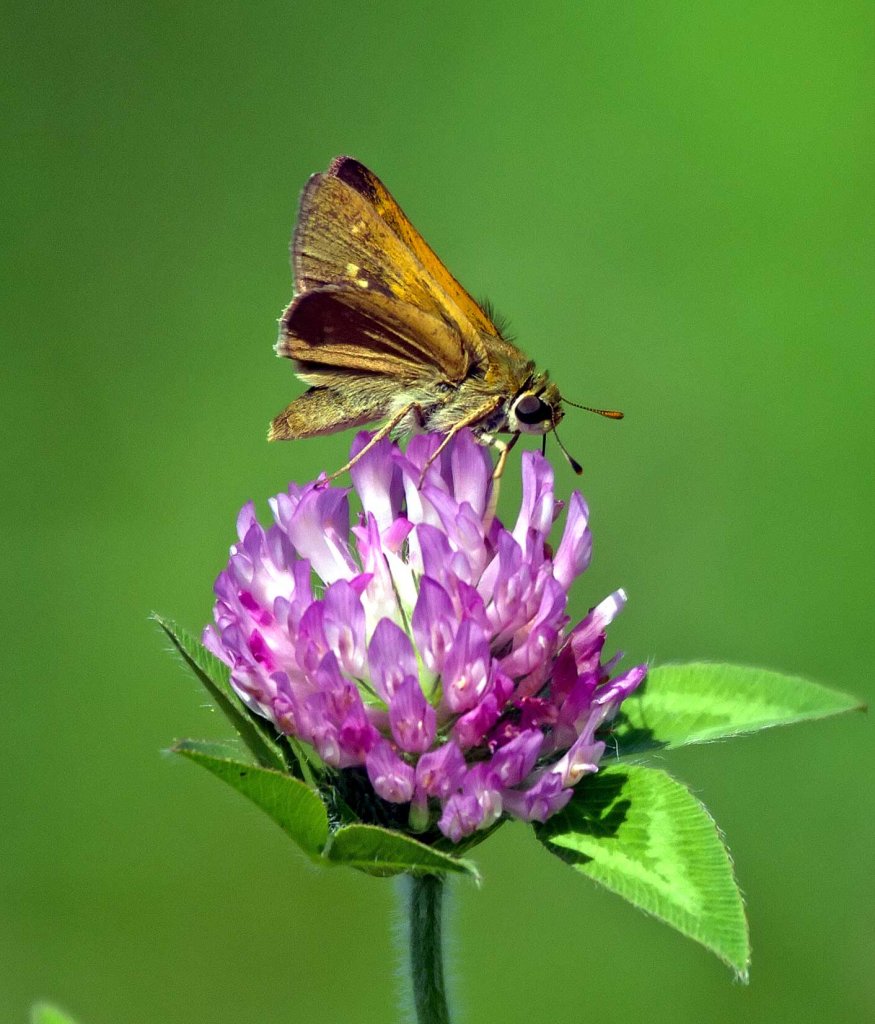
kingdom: Animalia
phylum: Arthropoda
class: Insecta
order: Lepidoptera
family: Hesperiidae
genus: Polites
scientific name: Polites themistocles
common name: Tawny-edged Skipper
